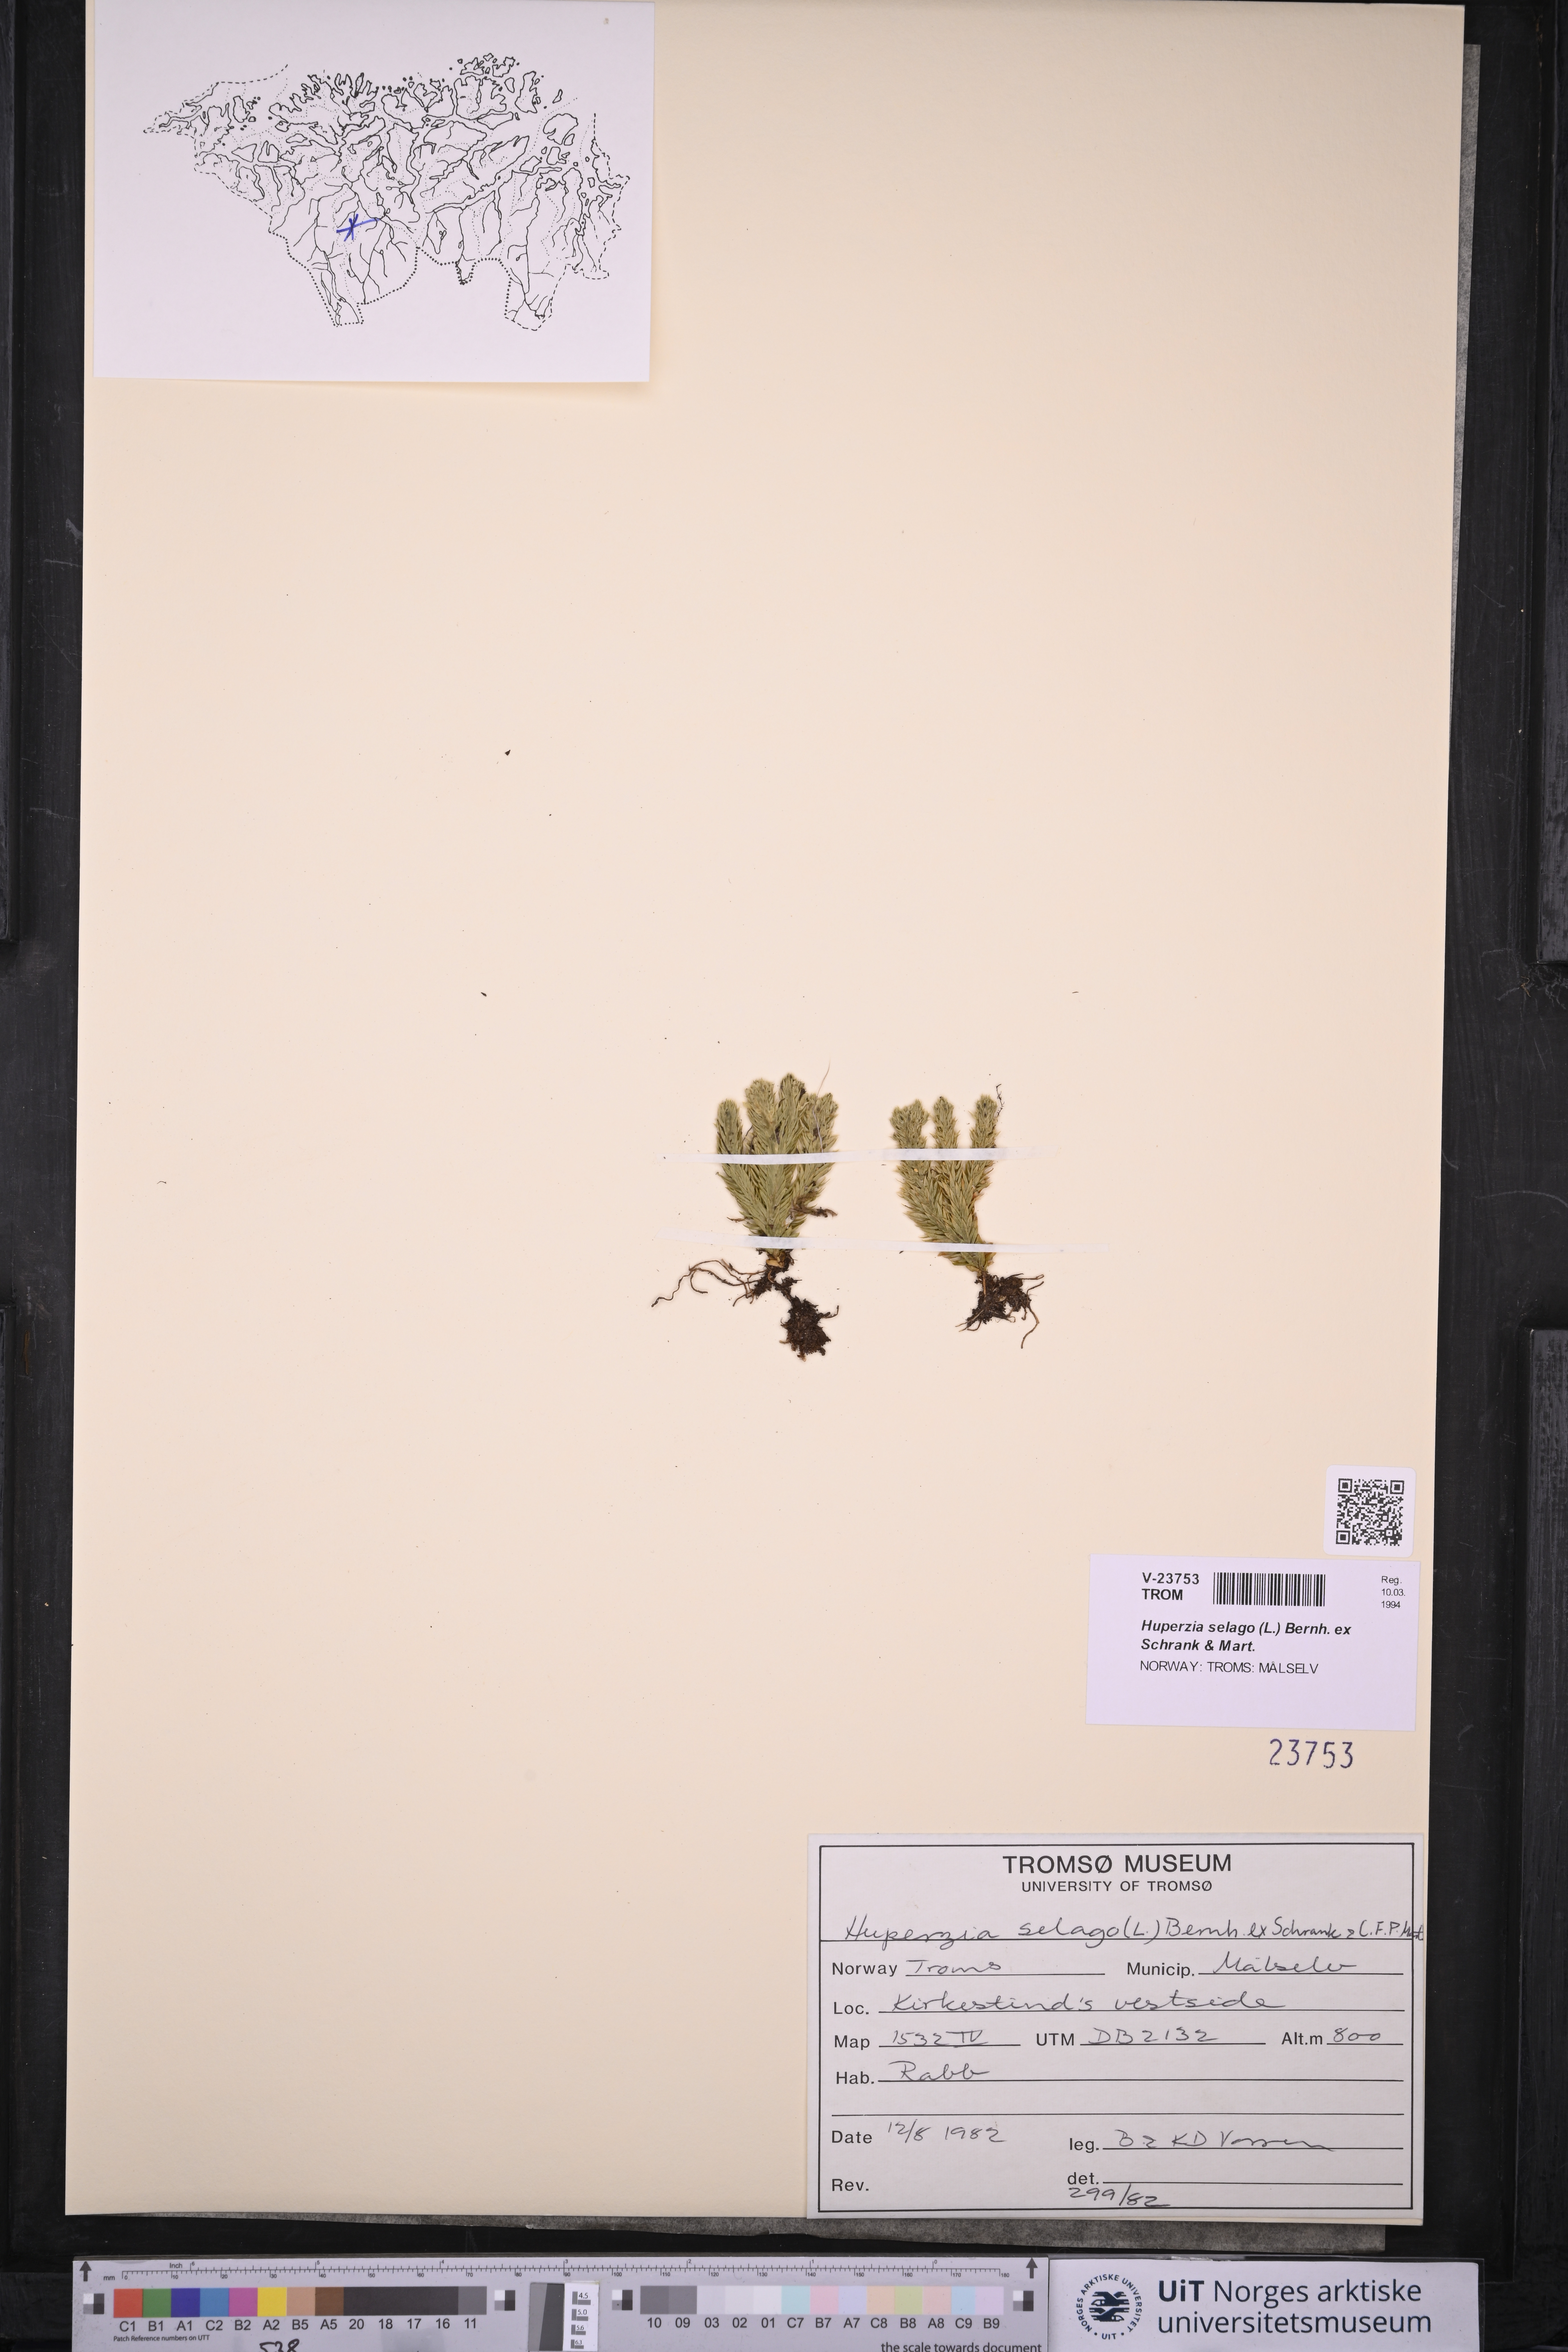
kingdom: Plantae
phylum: Tracheophyta
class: Lycopodiopsida
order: Lycopodiales
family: Lycopodiaceae
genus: Huperzia
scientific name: Huperzia selago
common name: Northern firmoss
